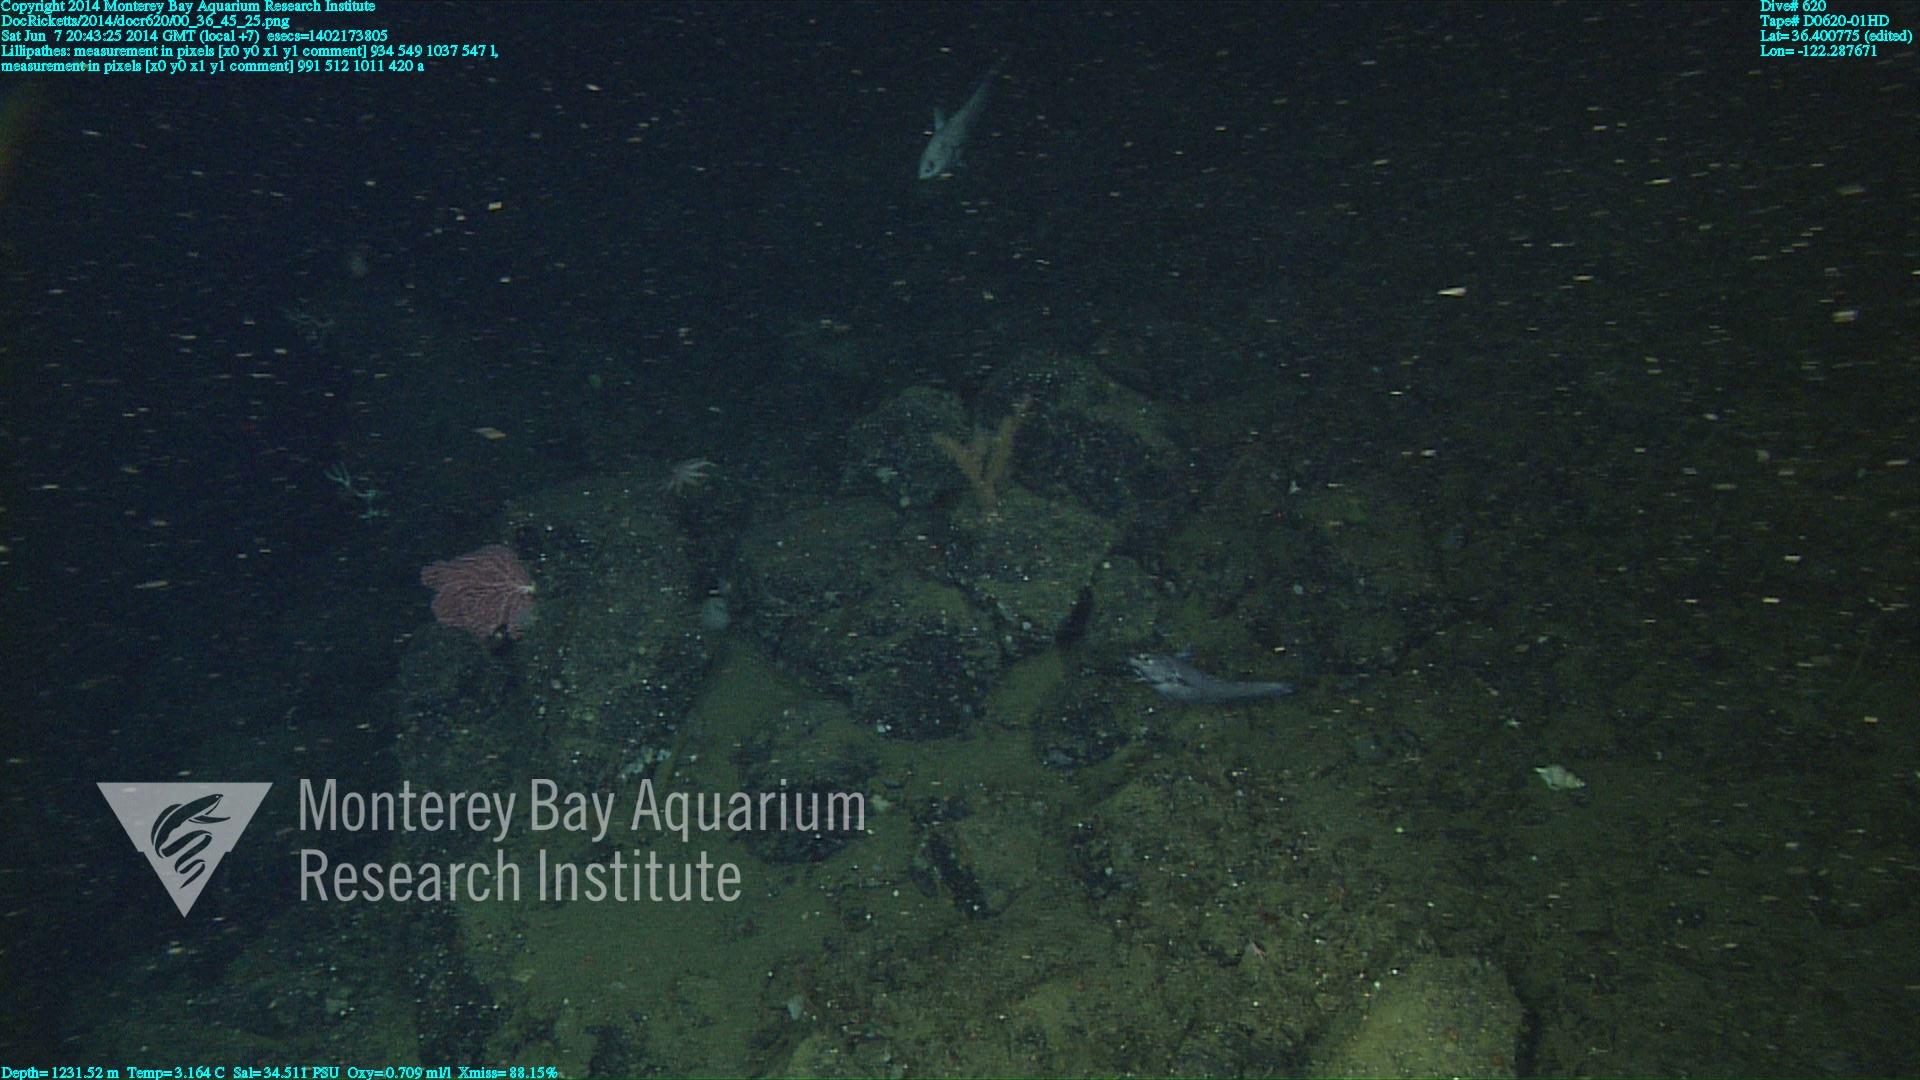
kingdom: Animalia
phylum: Cnidaria
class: Anthozoa
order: Antipatharia
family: Schizopathidae
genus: Lillipathes
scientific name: Lillipathes
